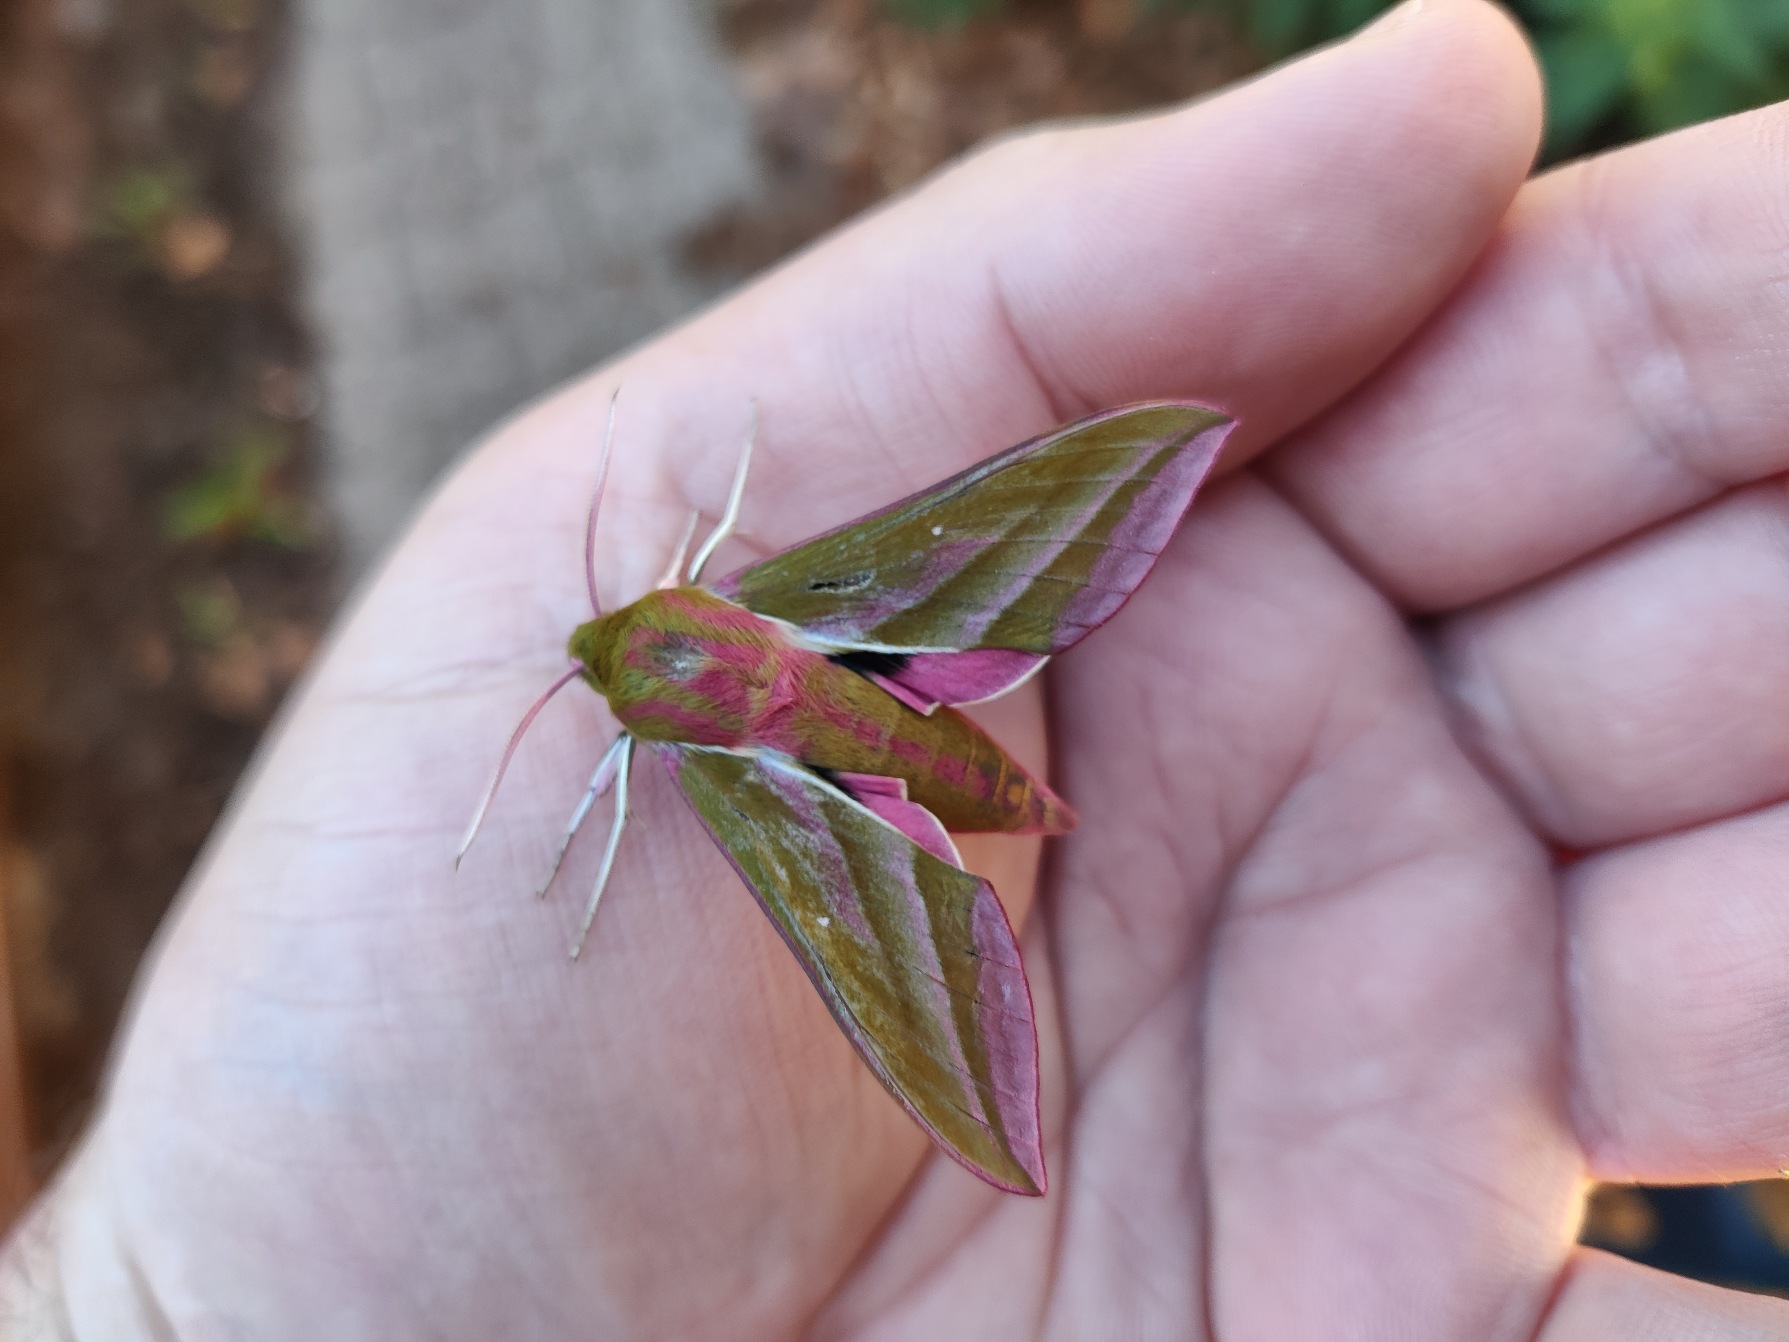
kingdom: Animalia
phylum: Arthropoda
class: Insecta
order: Lepidoptera
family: Sphingidae
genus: Deilephila
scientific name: Deilephila elpenor
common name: Dueurtsværmer
